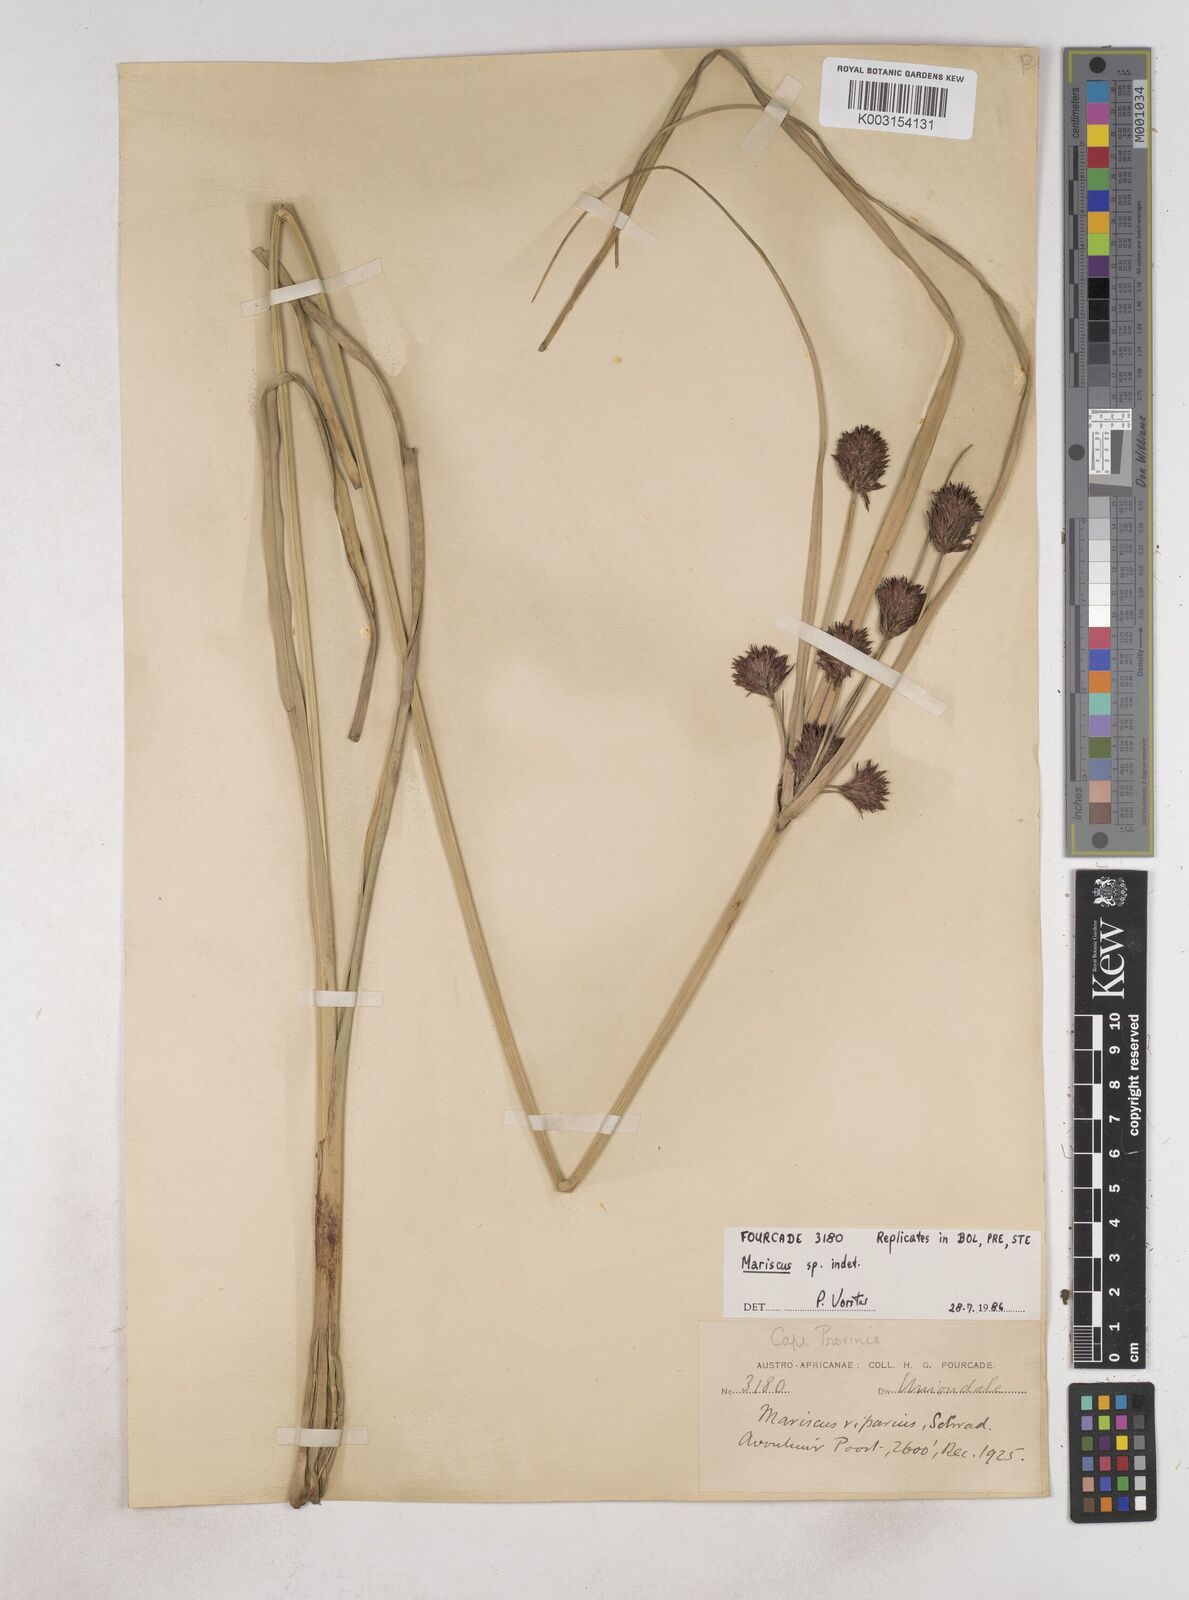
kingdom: Plantae
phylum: Tracheophyta
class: Liliopsida
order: Poales
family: Cyperaceae
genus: Cyperus
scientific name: Cyperus thunbergii
